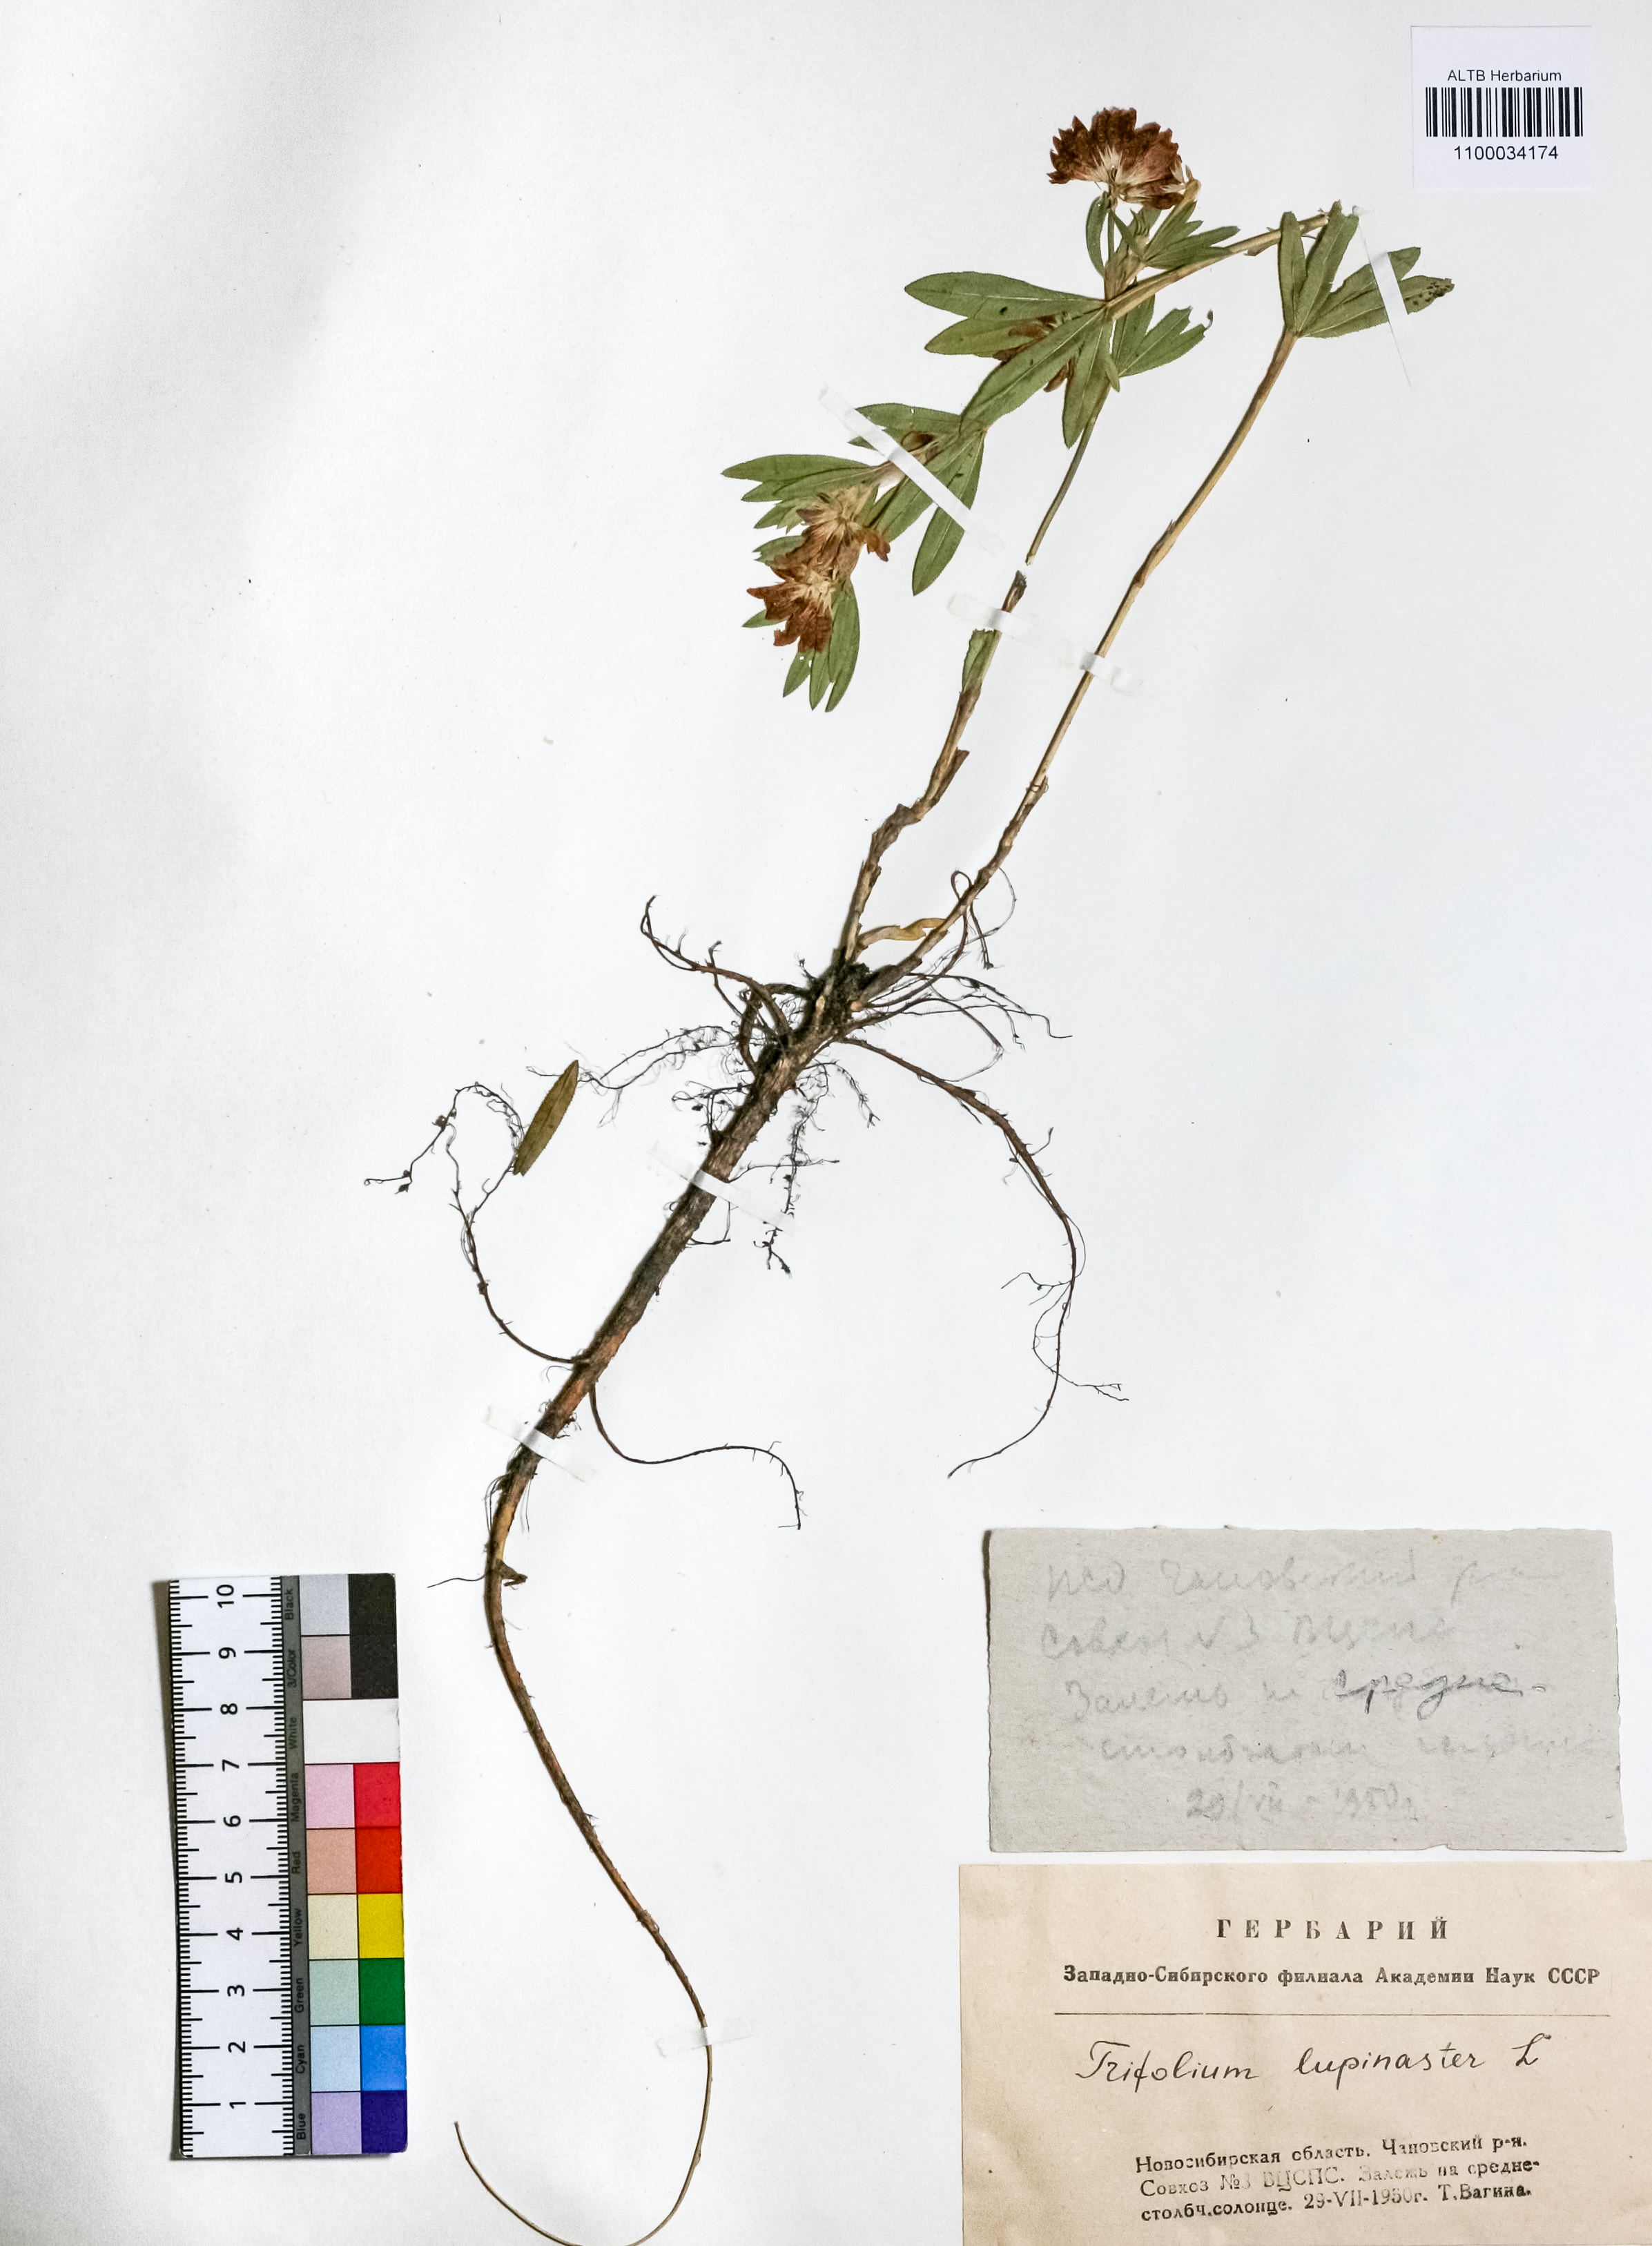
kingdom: Plantae
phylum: Tracheophyta
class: Magnoliopsida
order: Fabales
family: Fabaceae
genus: Trifolium
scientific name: Trifolium lupinaster
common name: Lupine clover
